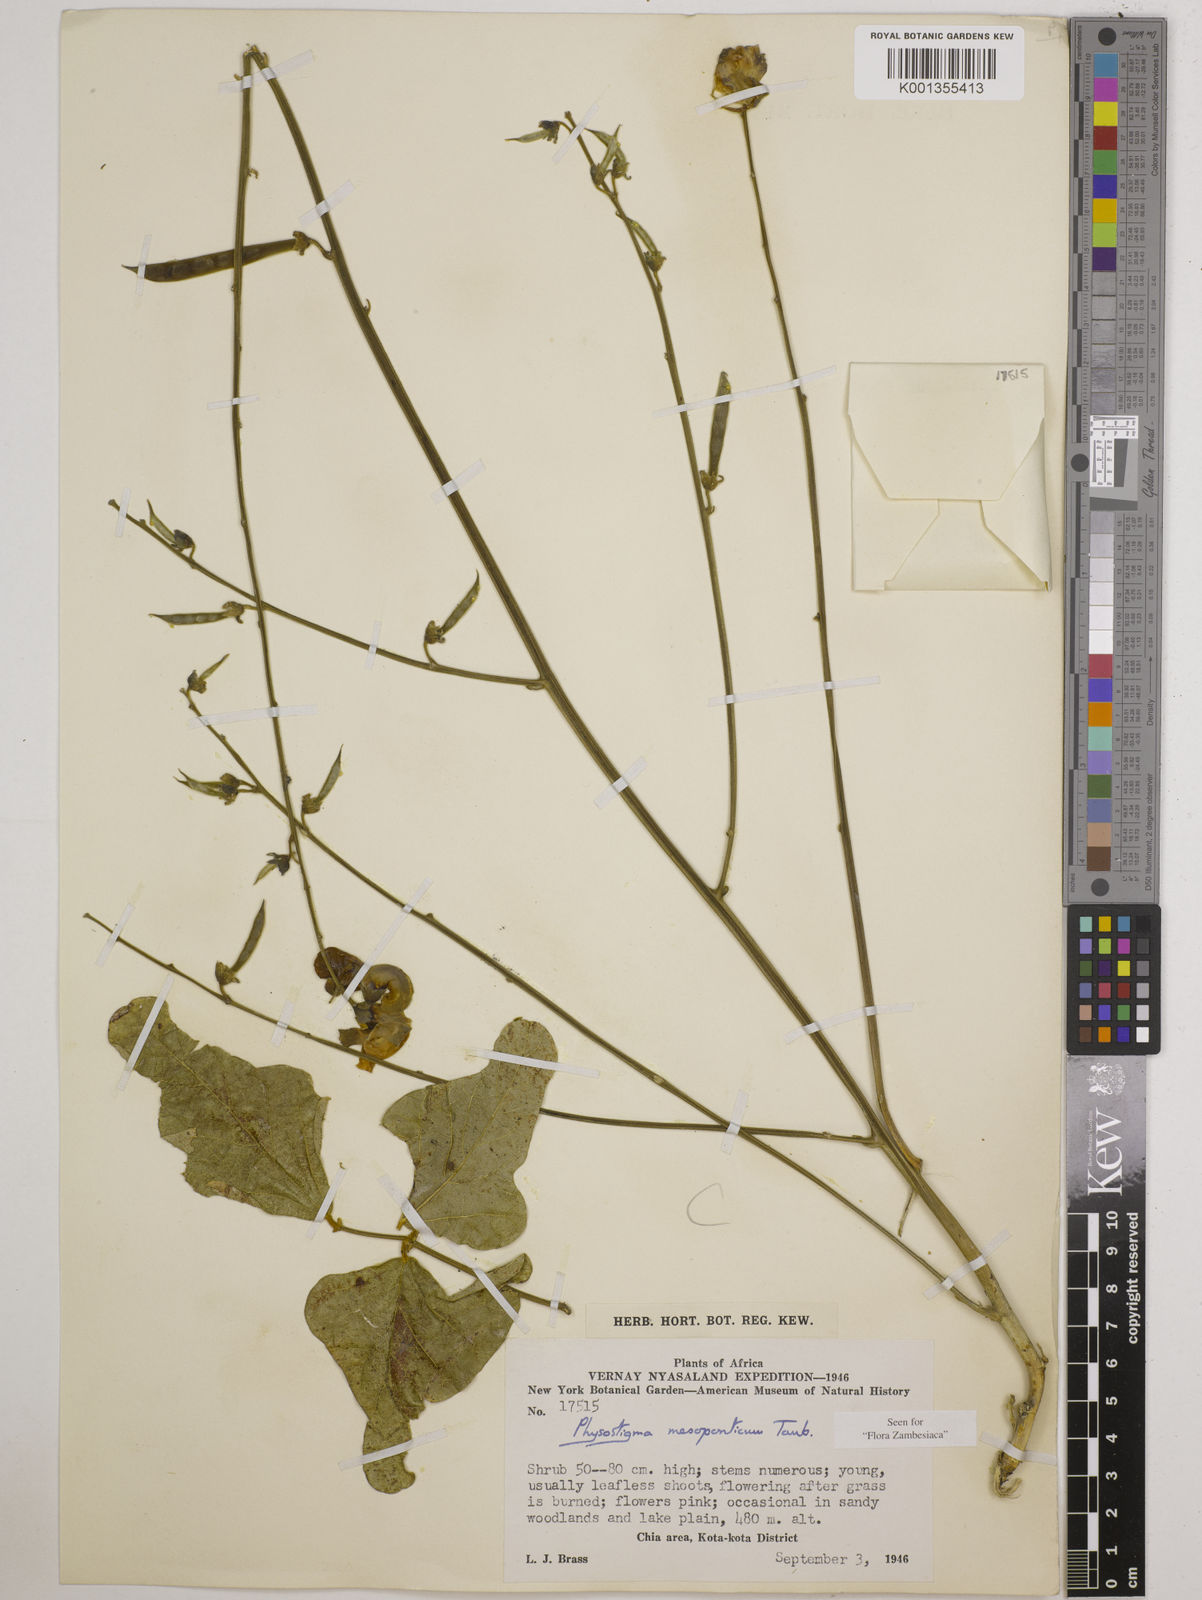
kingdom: Plantae
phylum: Tracheophyta
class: Magnoliopsida
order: Fabales
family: Fabaceae
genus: Physostigma
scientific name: Physostigma mesoponticum
